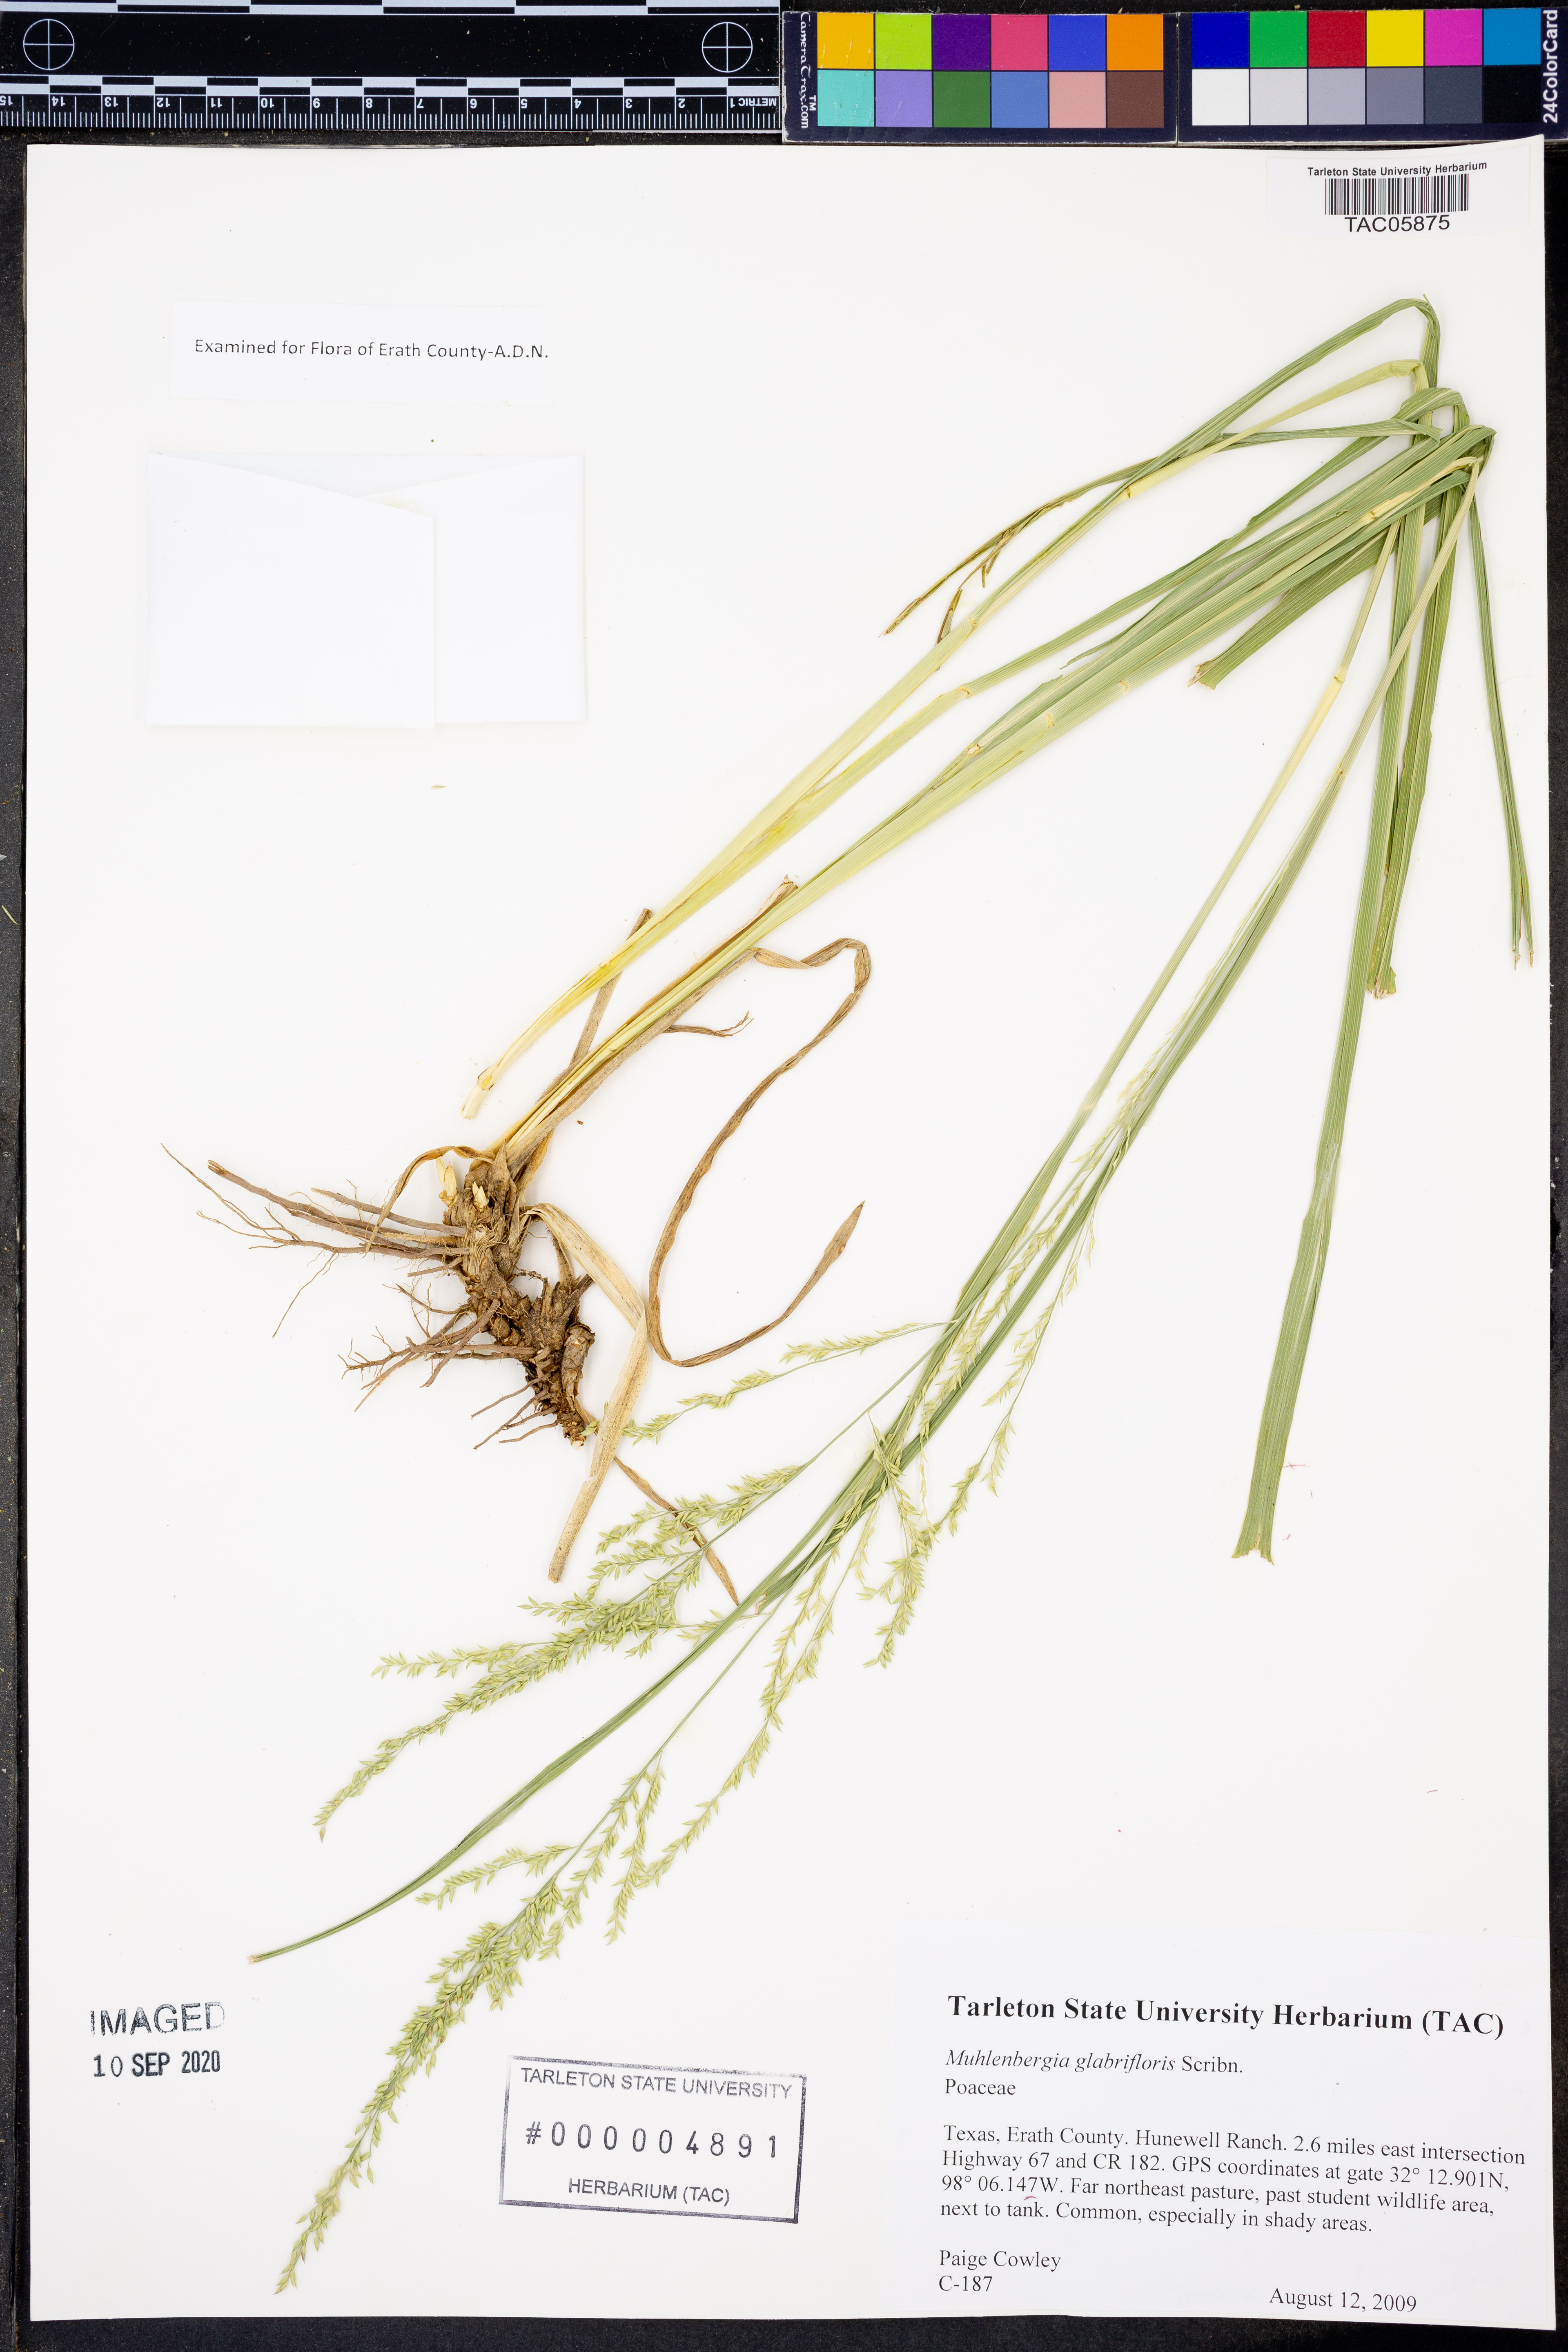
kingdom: Plantae
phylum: Tracheophyta
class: Liliopsida
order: Poales
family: Poaceae
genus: Muhlenbergia
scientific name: Muhlenbergia glabrifloris
